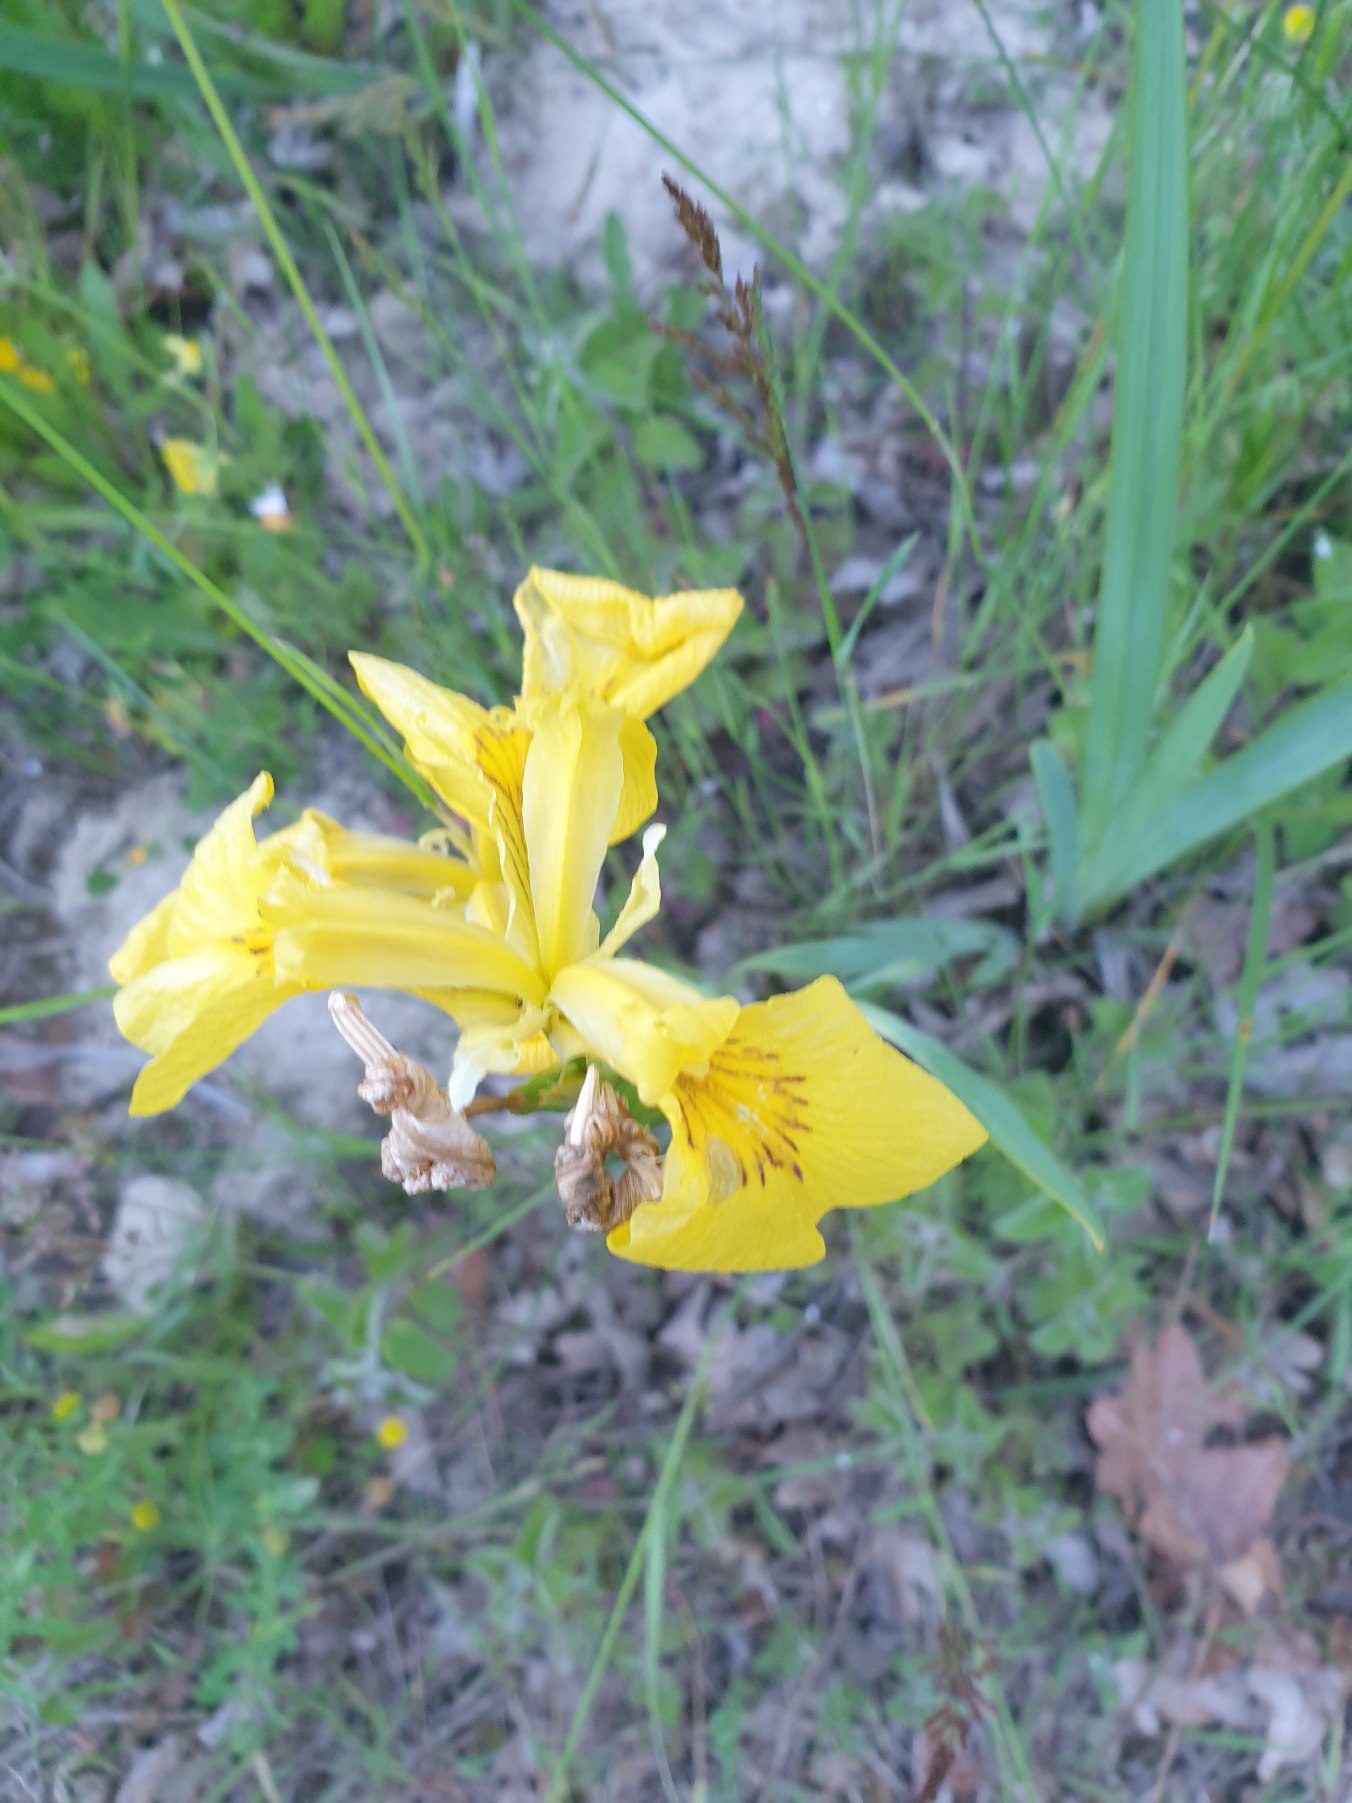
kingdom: Plantae
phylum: Tracheophyta
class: Liliopsida
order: Asparagales
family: Iridaceae
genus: Iris
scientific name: Iris pseudacorus
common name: Gul iris
